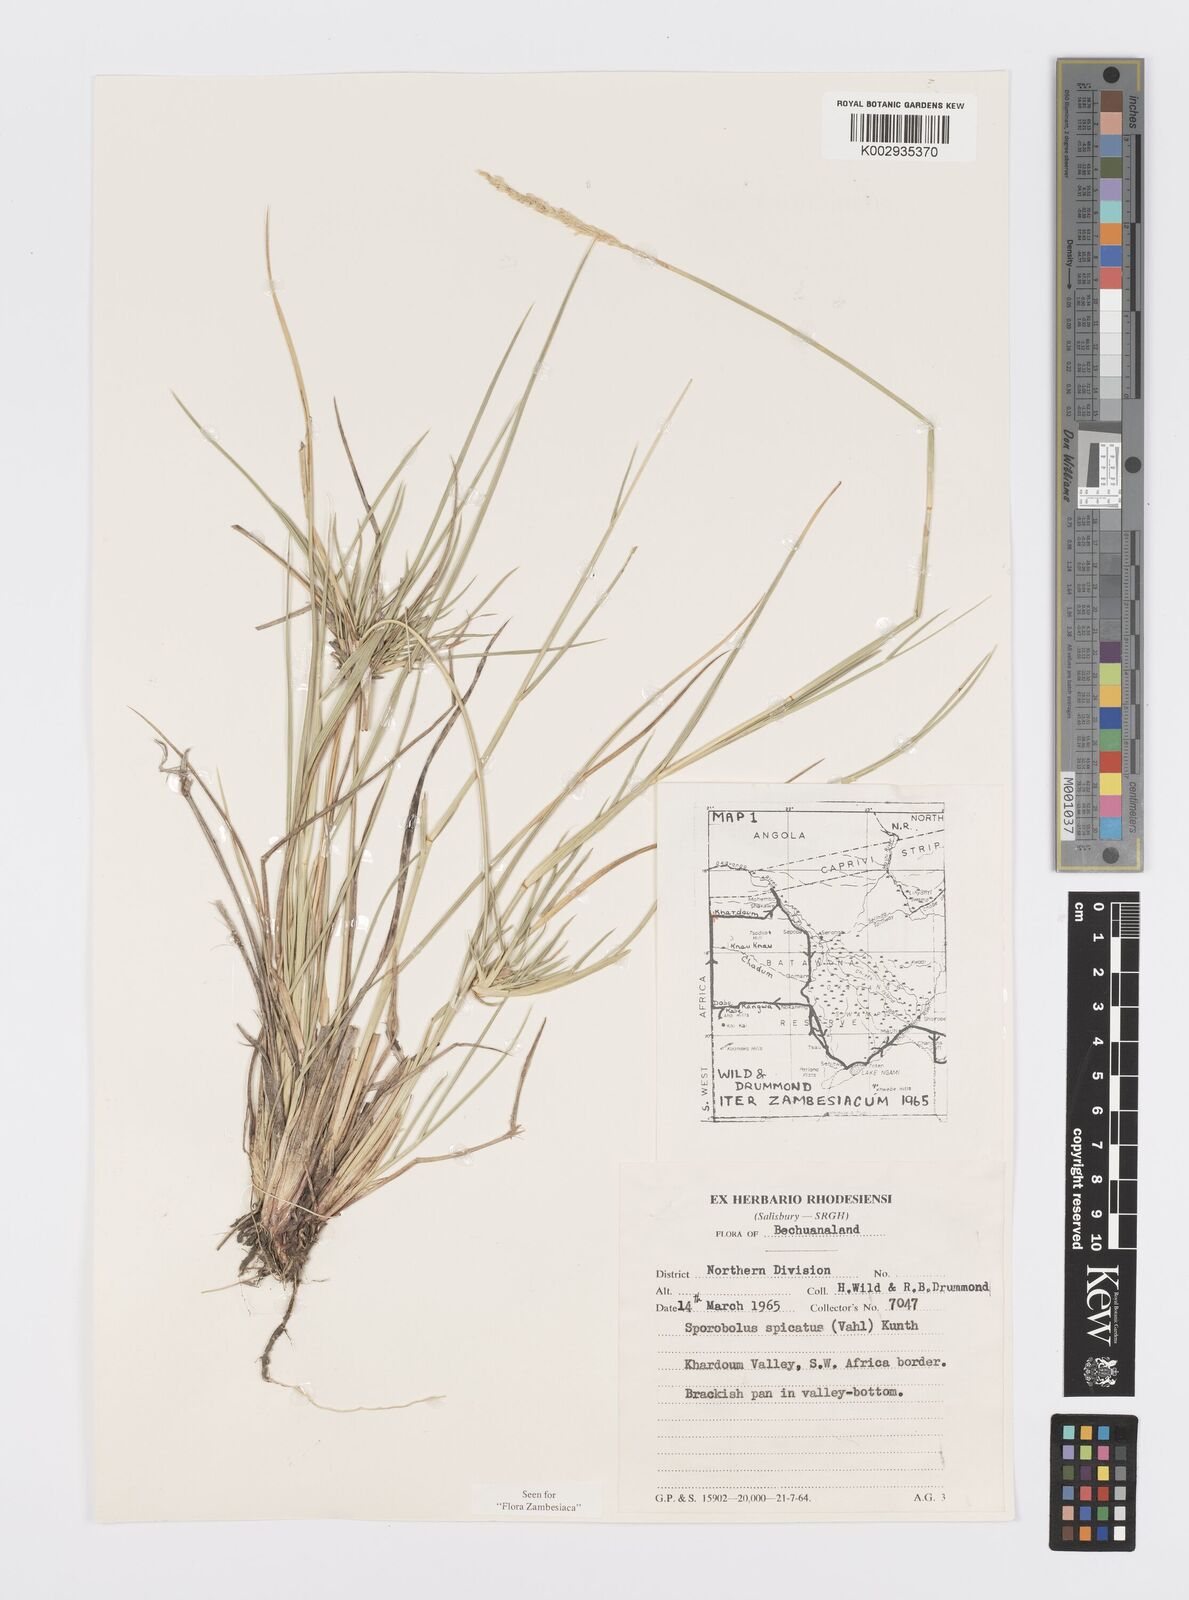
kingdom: Plantae
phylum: Tracheophyta
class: Liliopsida
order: Poales
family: Poaceae
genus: Sporobolus
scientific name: Sporobolus spicatus
